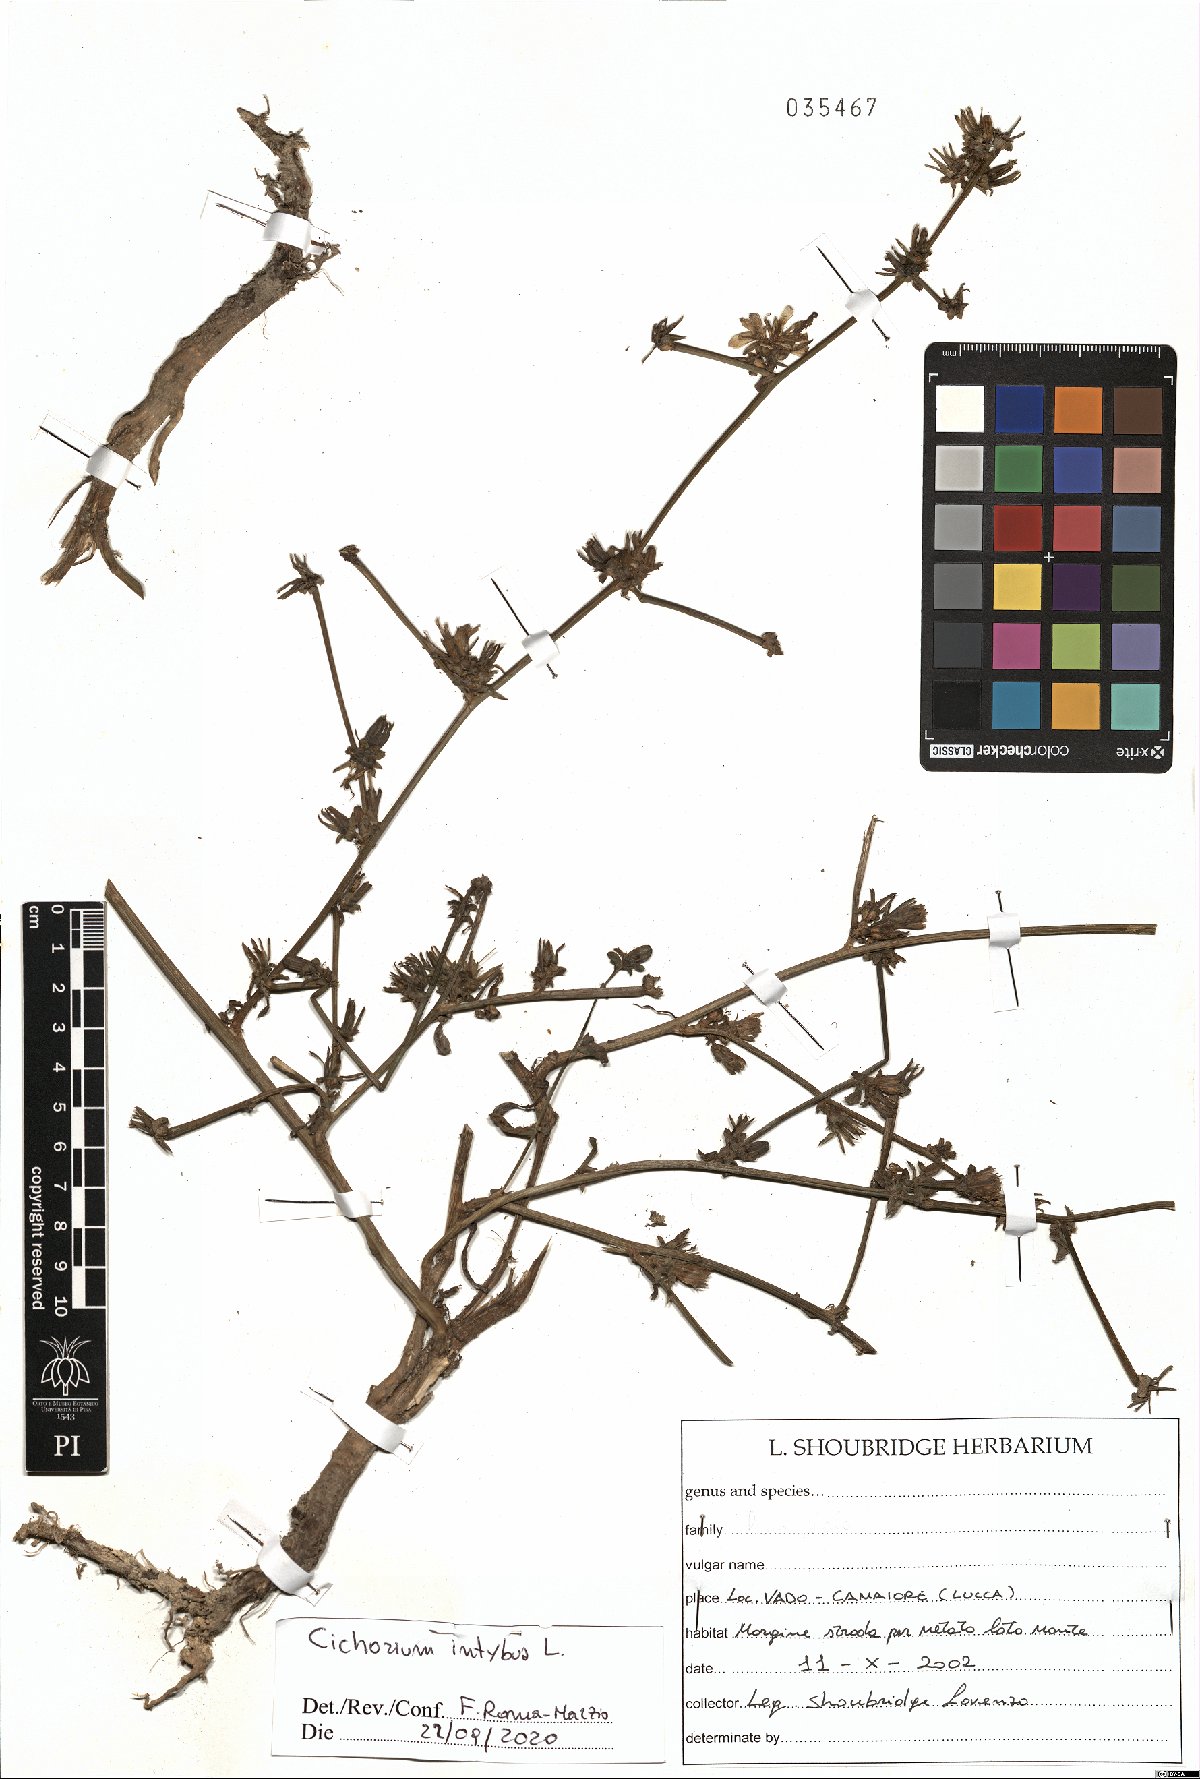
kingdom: Plantae
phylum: Tracheophyta
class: Magnoliopsida
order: Asterales
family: Asteraceae
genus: Cichorium
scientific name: Cichorium intybus
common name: Chicory
